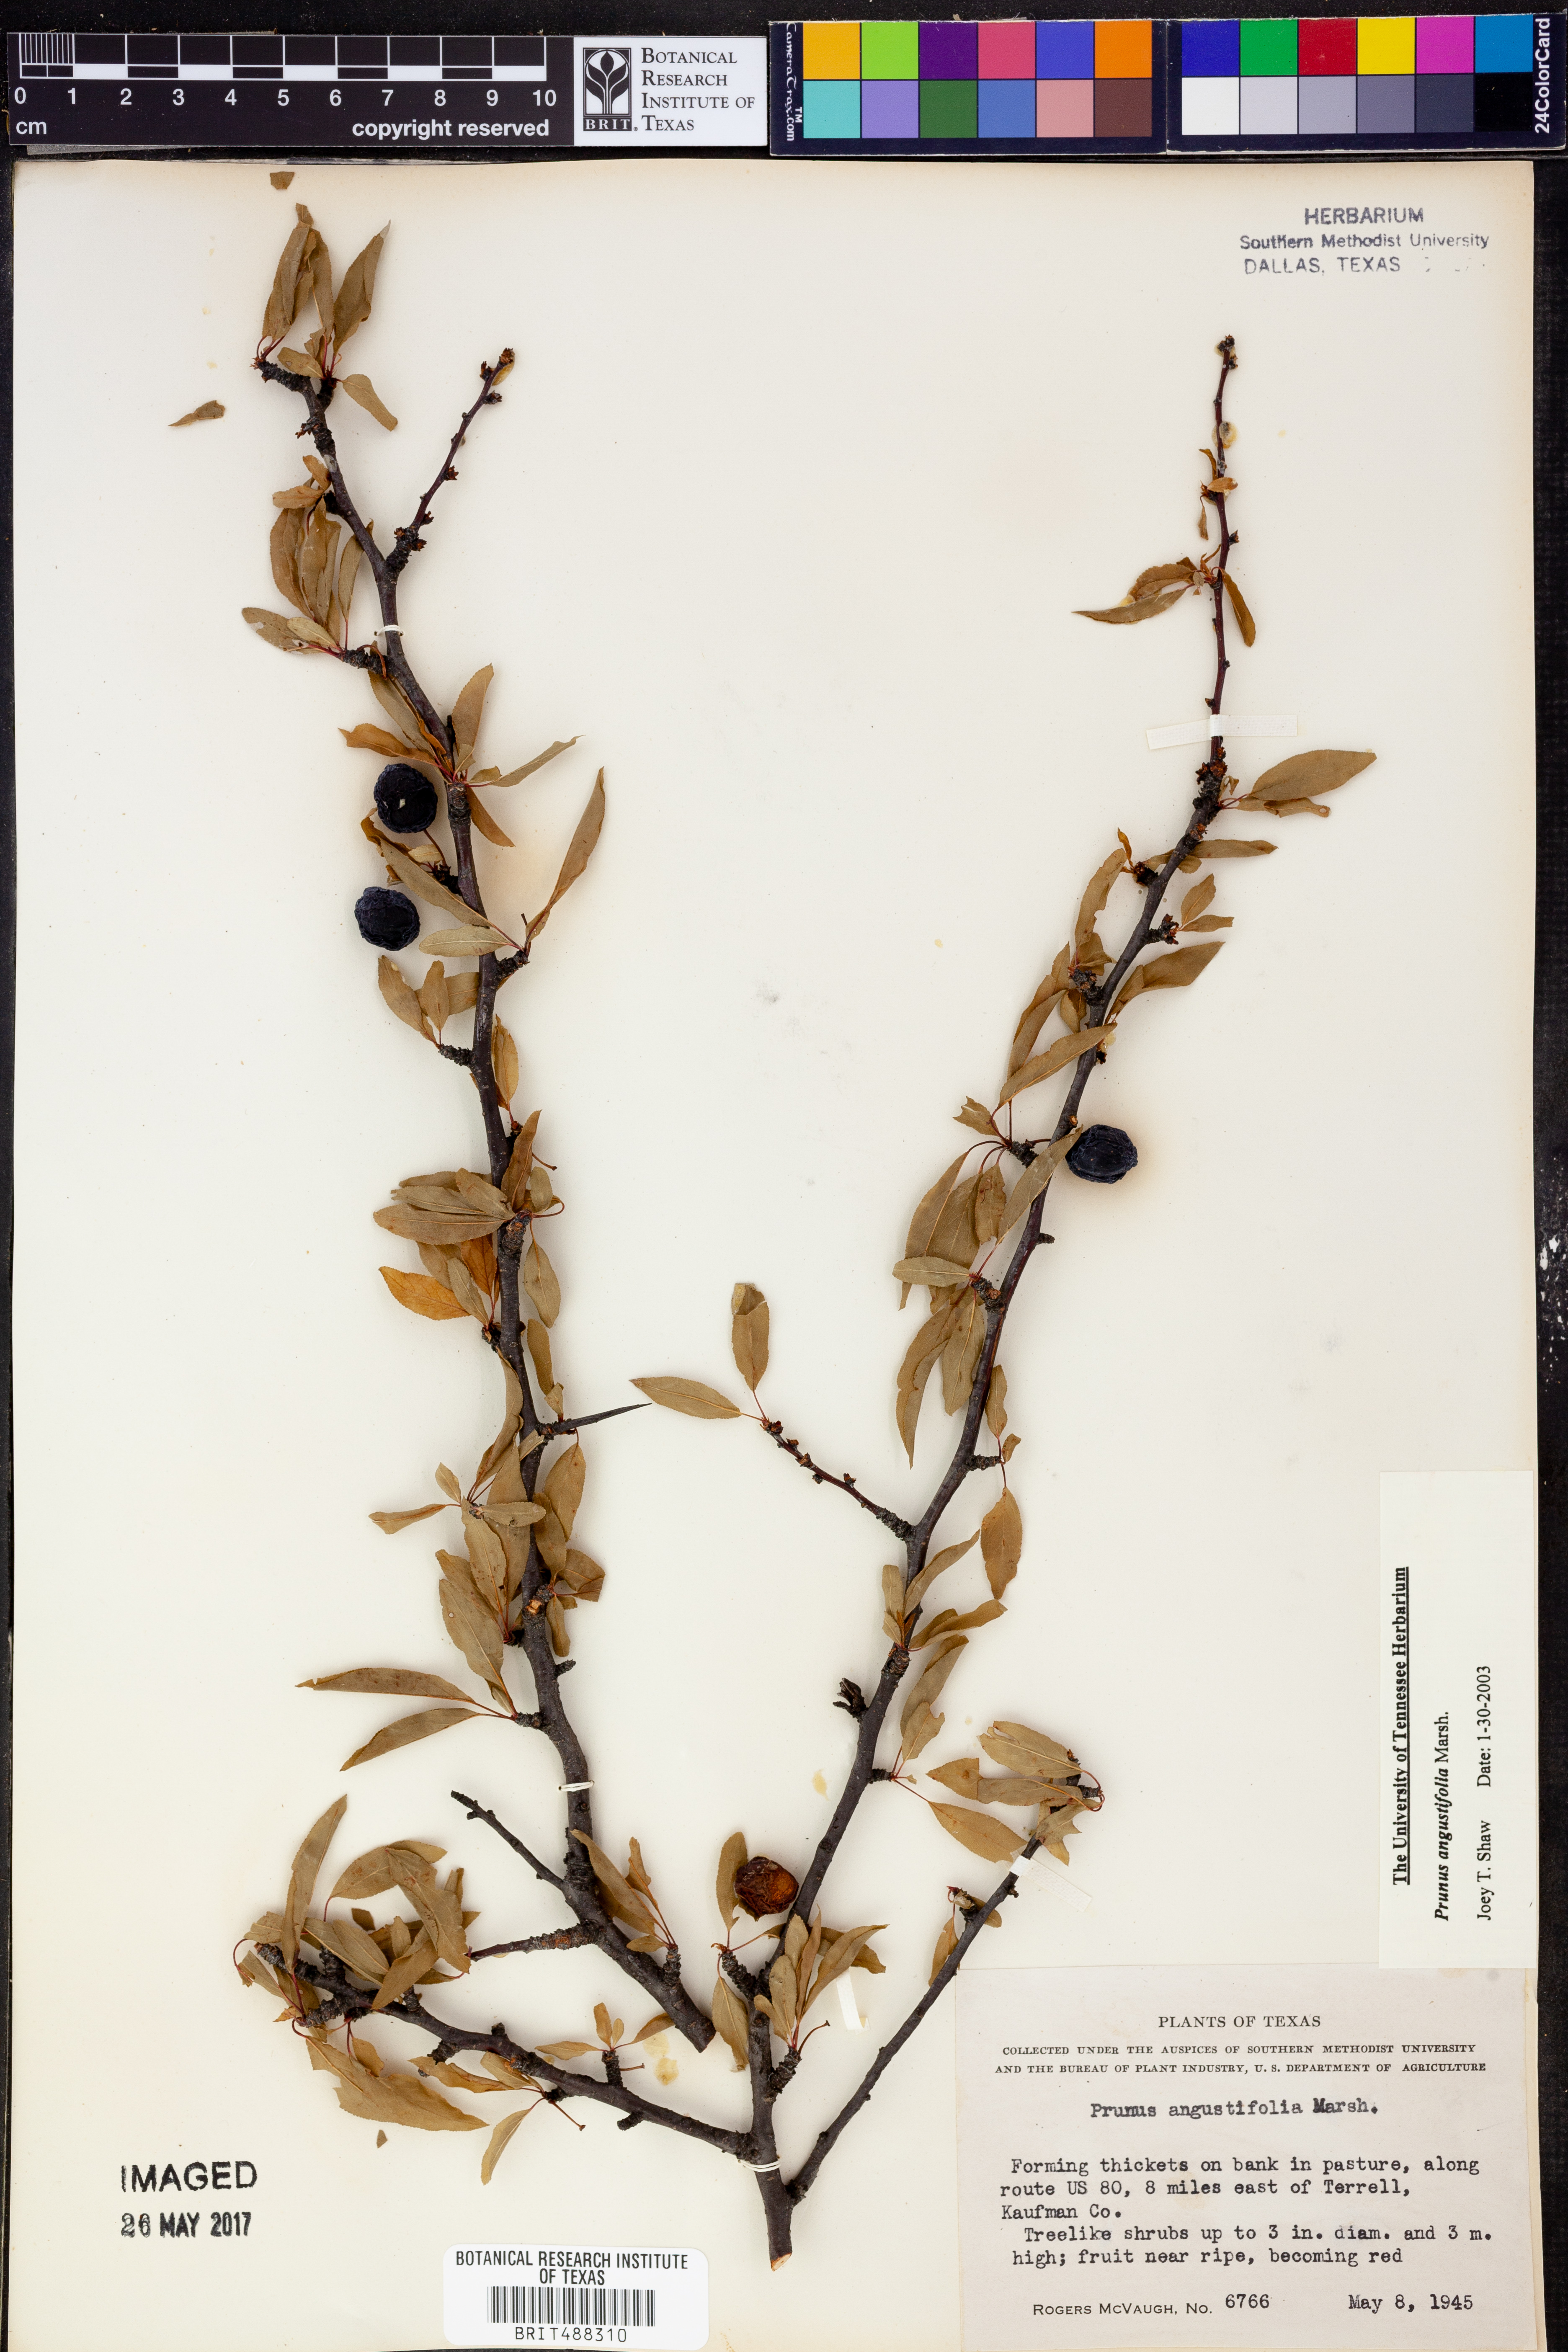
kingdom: Plantae
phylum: Tracheophyta
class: Magnoliopsida
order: Rosales
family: Rosaceae
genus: Prunus
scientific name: Prunus angustifolia
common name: Cherokee plum
